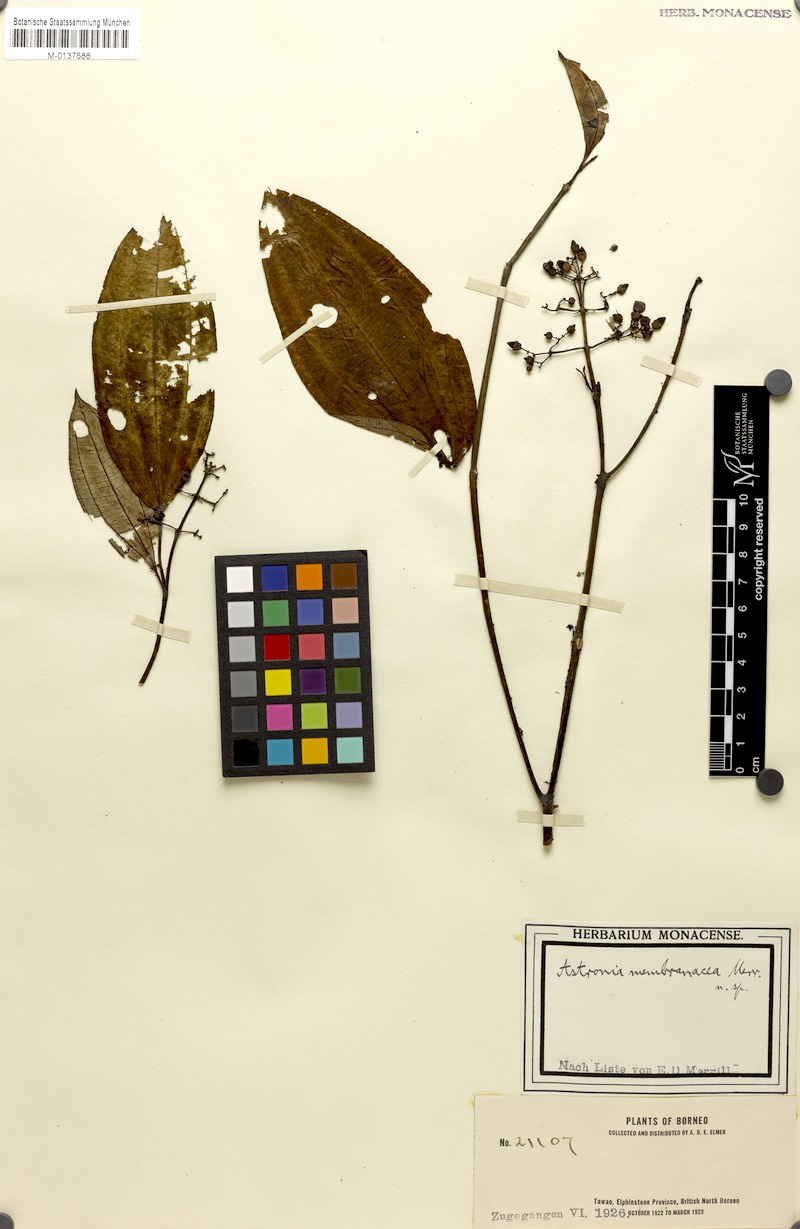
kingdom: Plantae
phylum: Tracheophyta
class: Magnoliopsida
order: Myrtales
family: Melastomataceae
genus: Ochthocharis
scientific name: Ochthocharis paniculata
